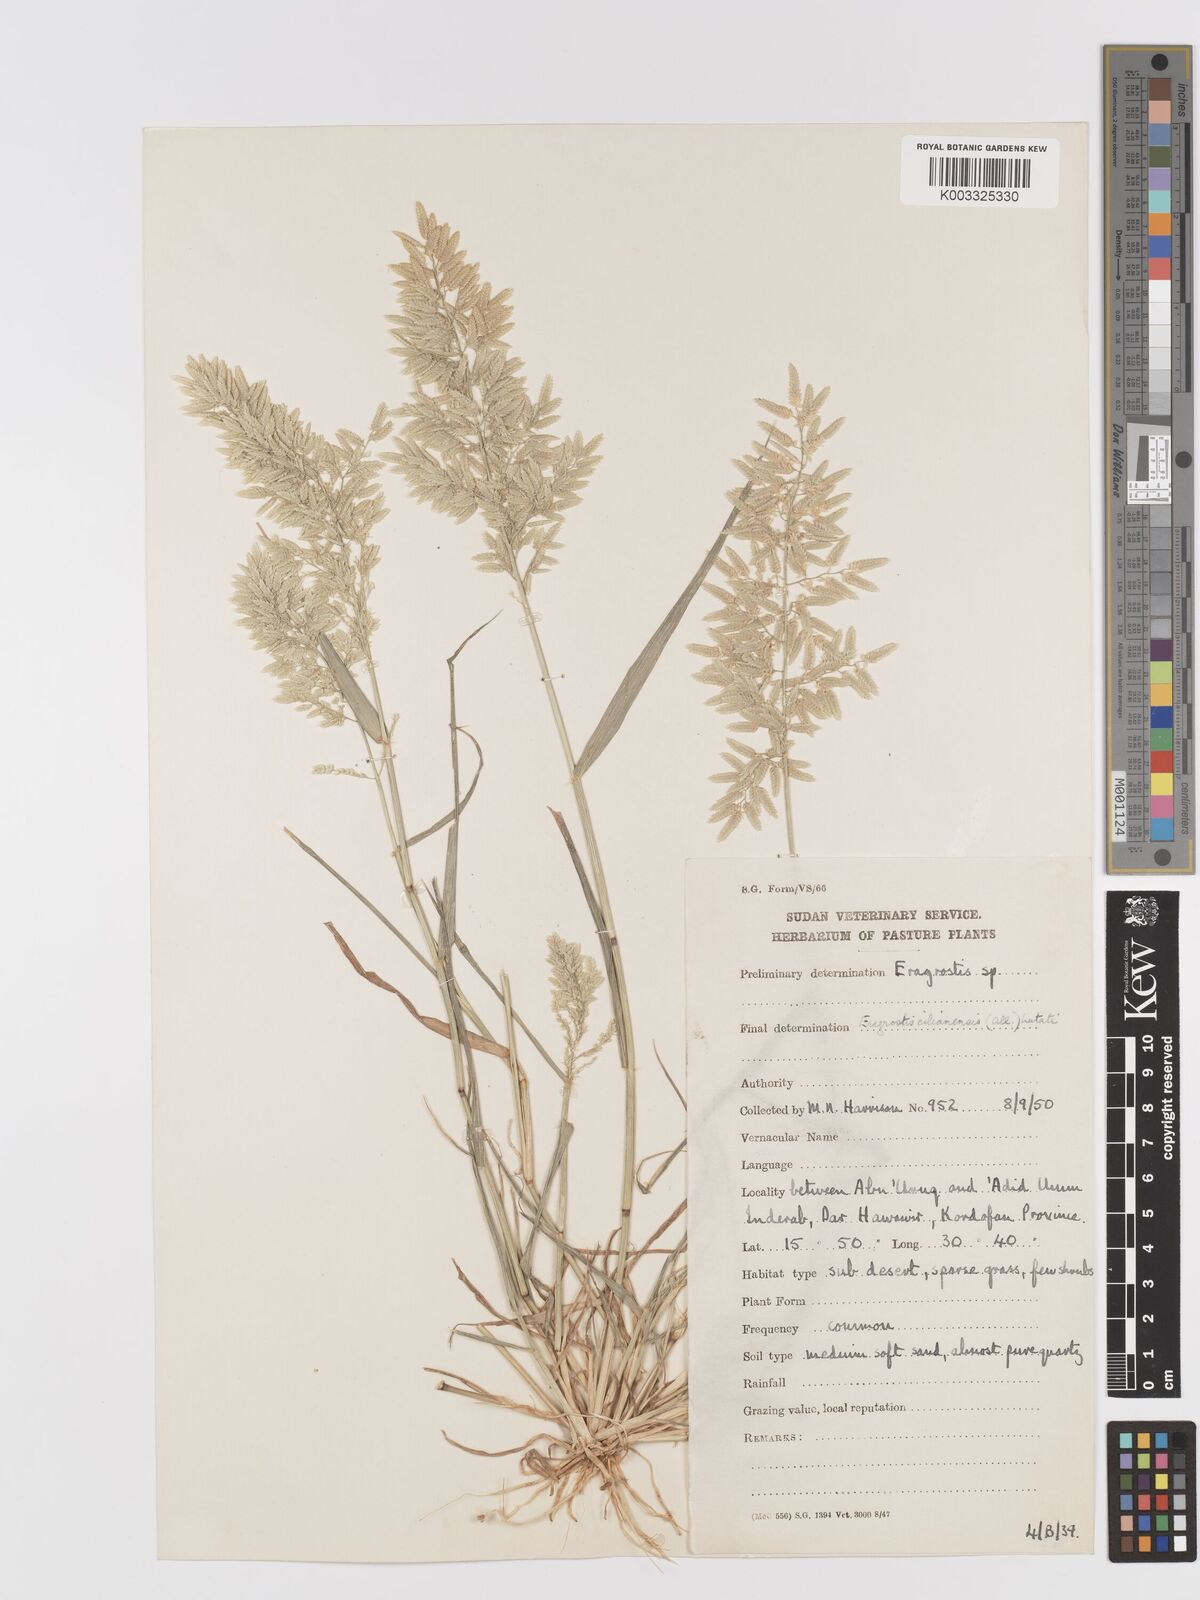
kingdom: Plantae
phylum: Tracheophyta
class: Liliopsida
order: Poales
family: Poaceae
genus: Eragrostis
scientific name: Eragrostis cilianensis
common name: Stinkgrass
